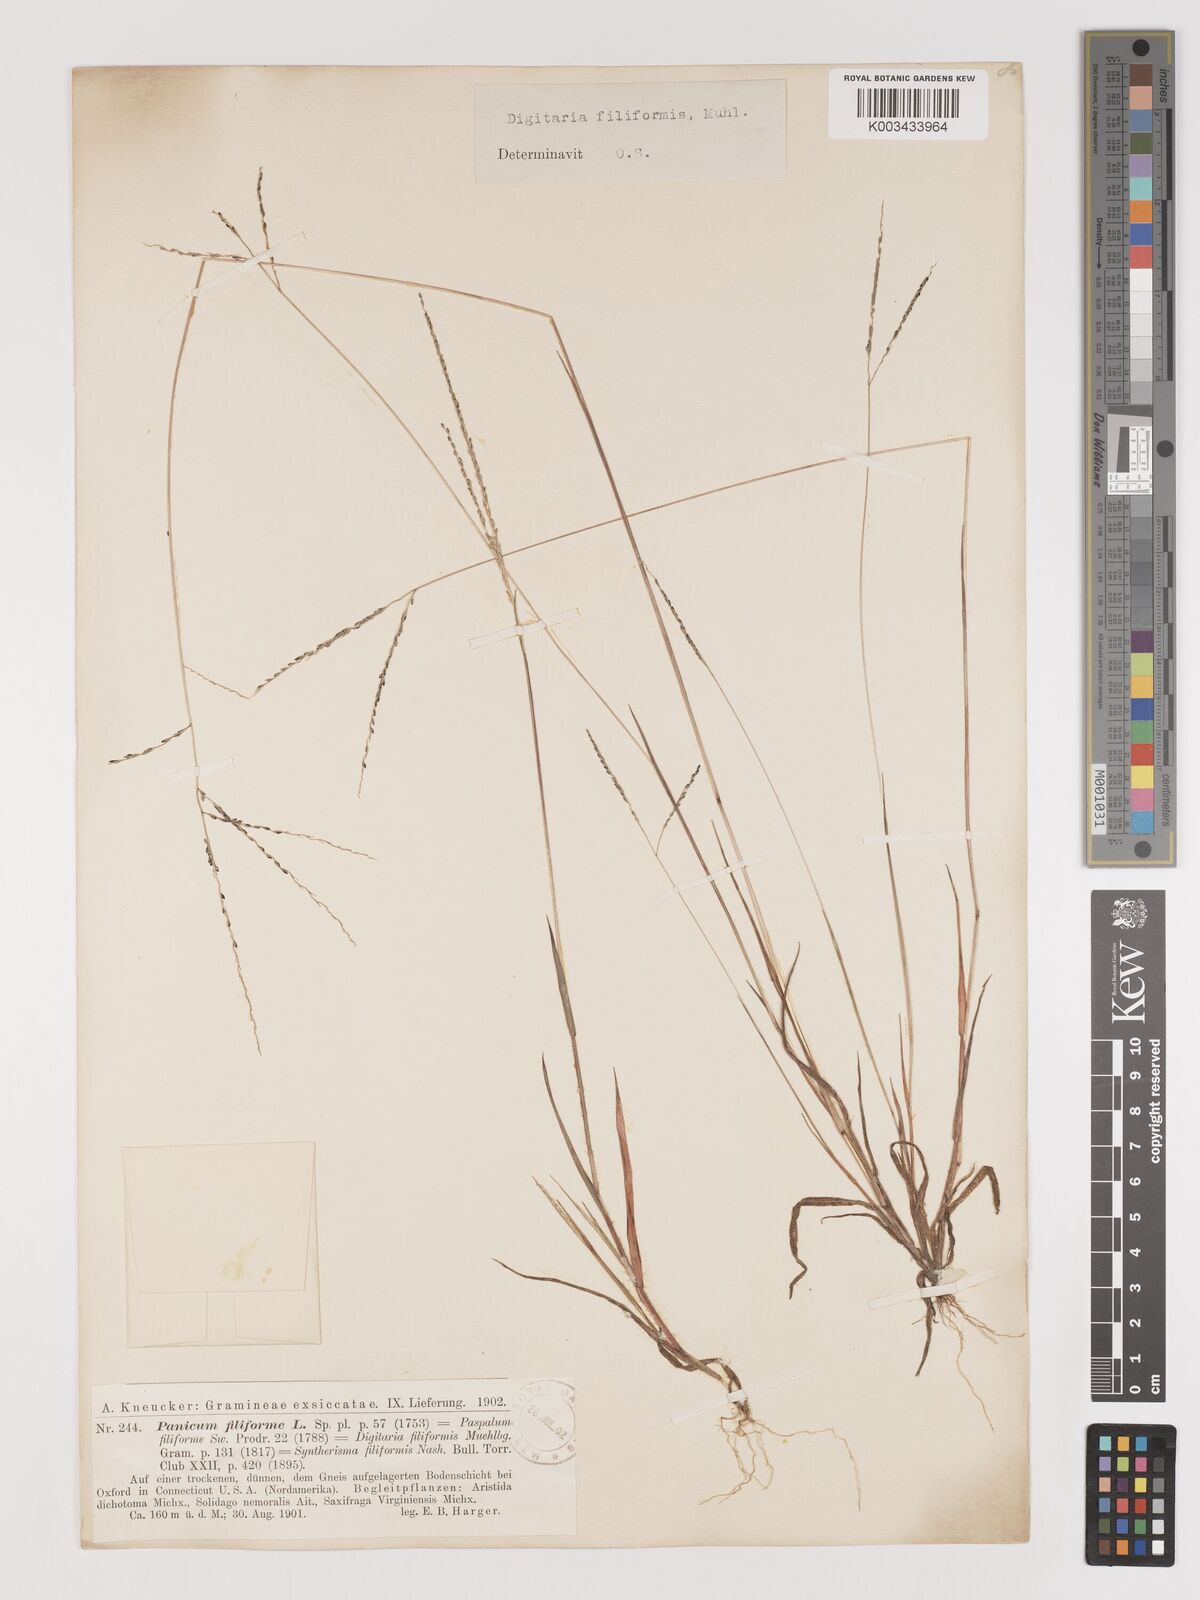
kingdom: Plantae
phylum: Tracheophyta
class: Liliopsida
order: Poales
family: Poaceae
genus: Digitaria
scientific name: Digitaria filiformis
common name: Slender crabgrass
